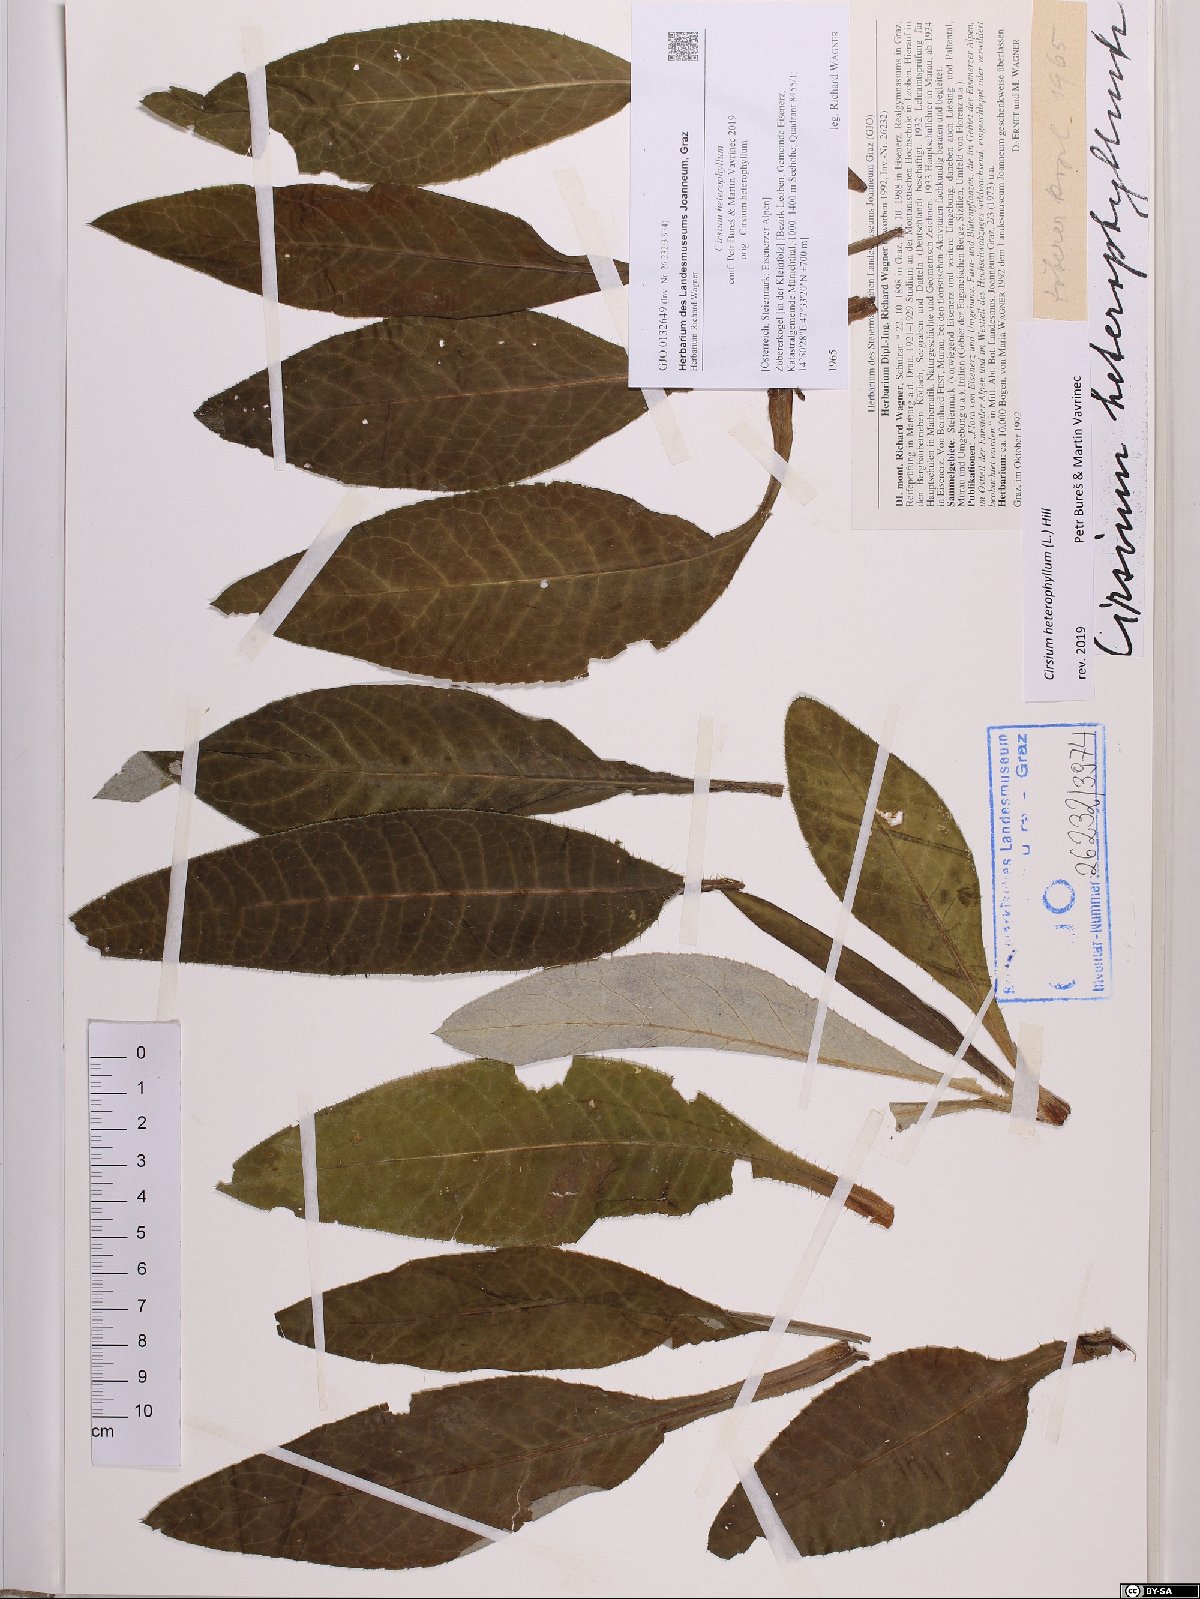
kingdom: Plantae
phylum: Tracheophyta
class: Magnoliopsida
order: Asterales
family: Asteraceae
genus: Cirsium
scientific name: Cirsium heterophyllum
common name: Melancholy thistle
